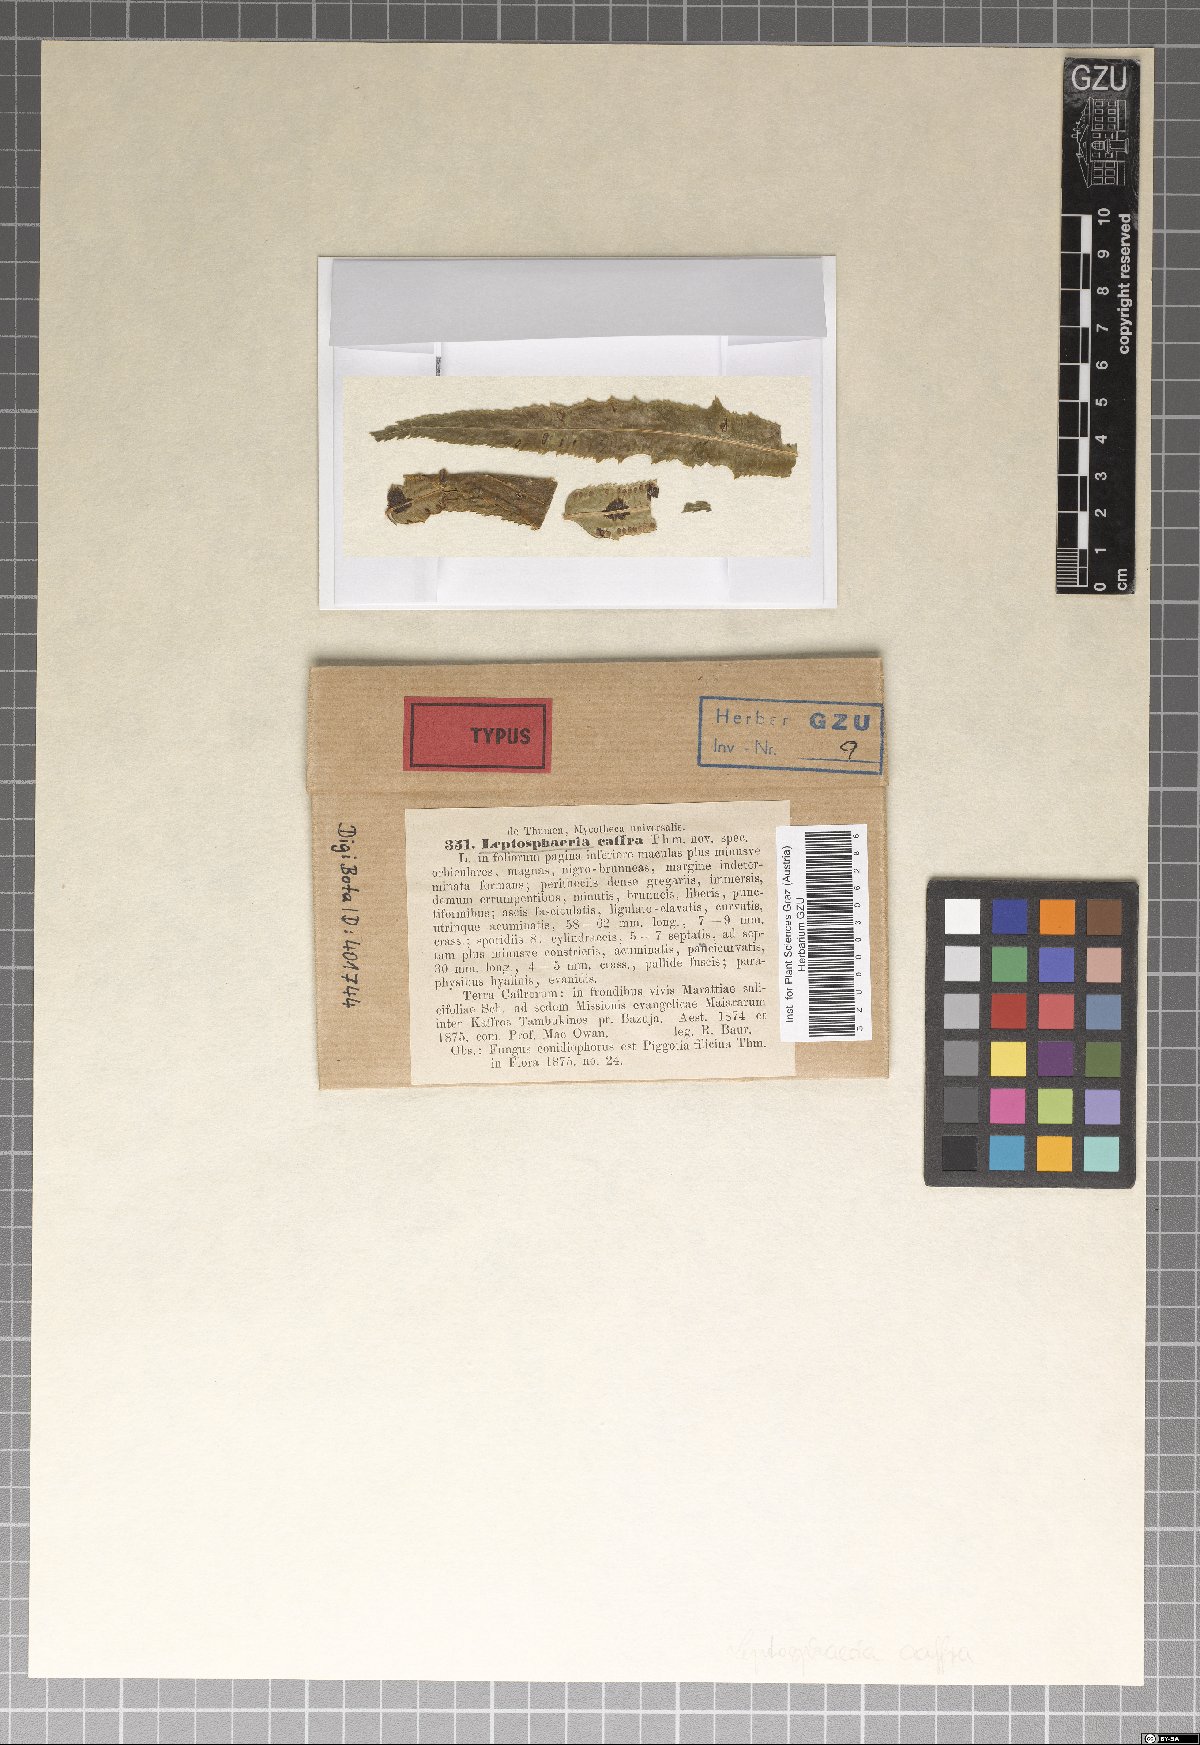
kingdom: Fungi
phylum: Ascomycota
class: Dothideomycetes
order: Dothideales
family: Saccotheciaceae
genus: Metasphaeria
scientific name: Metasphaeria caffra
